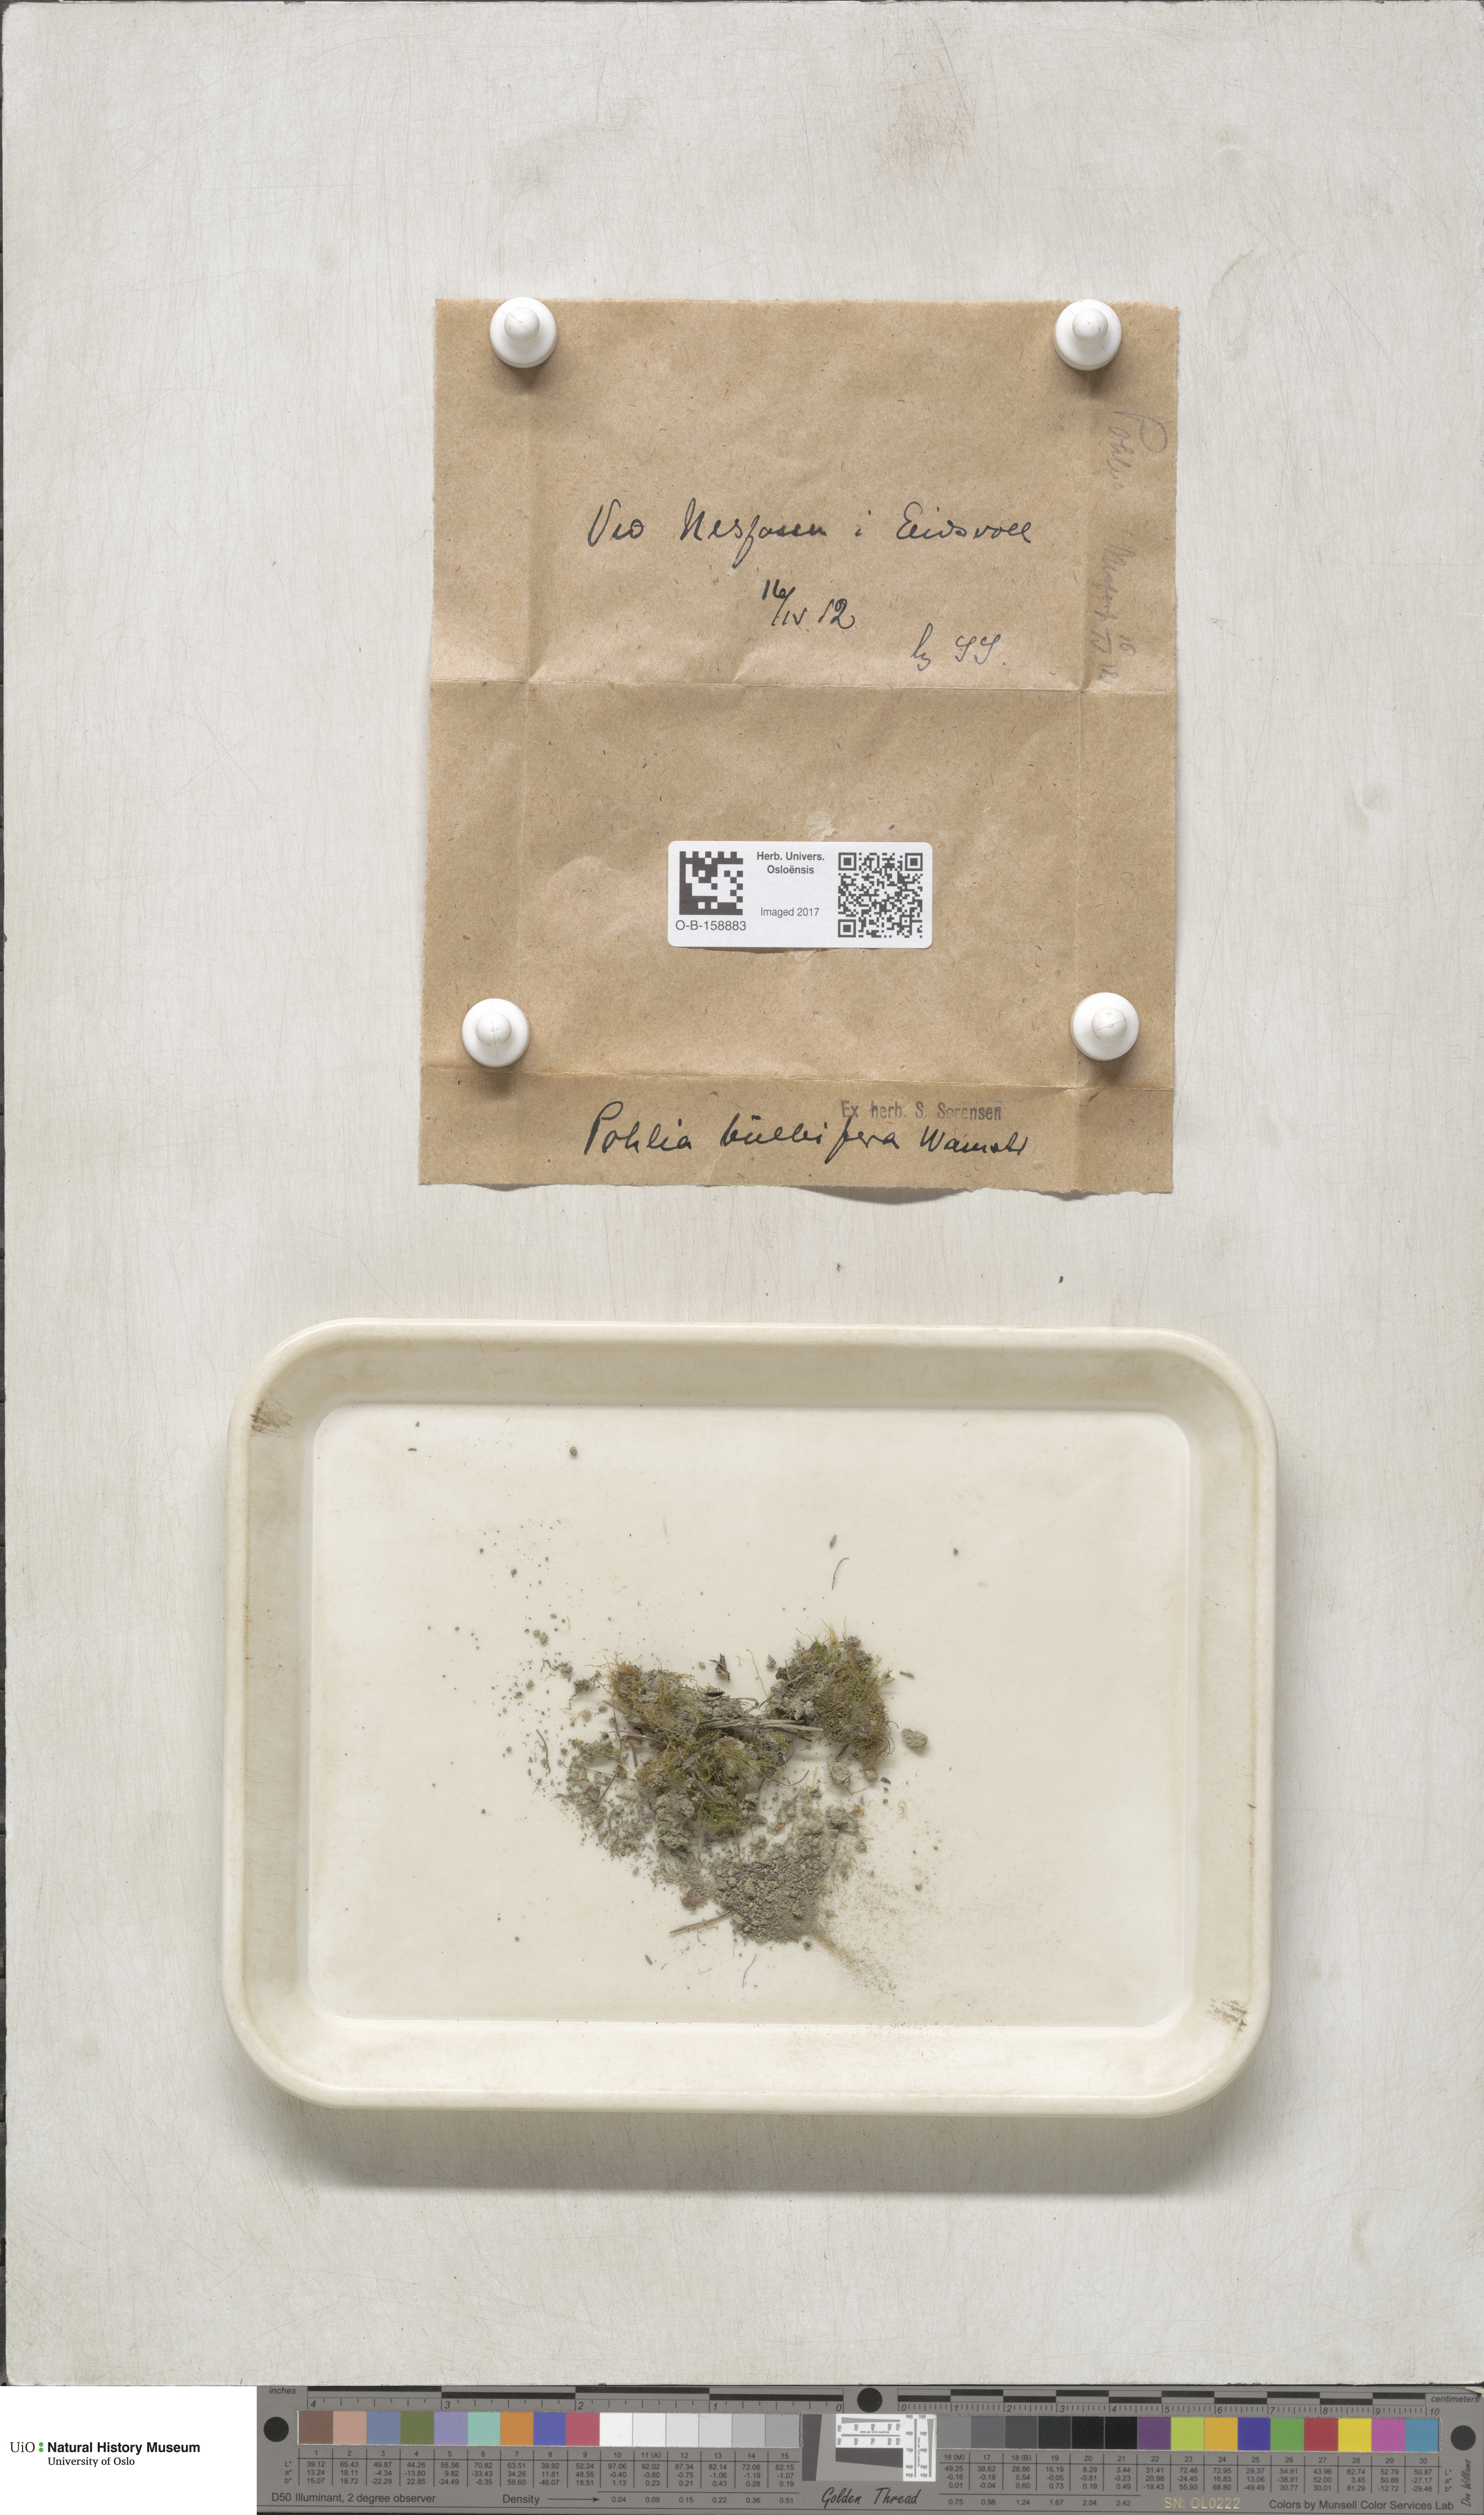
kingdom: Plantae
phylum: Bryophyta
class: Bryopsida
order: Bryales
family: Mniaceae
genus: Pohlia
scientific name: Pohlia bulbifera
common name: Blunt-bud nodding moss
